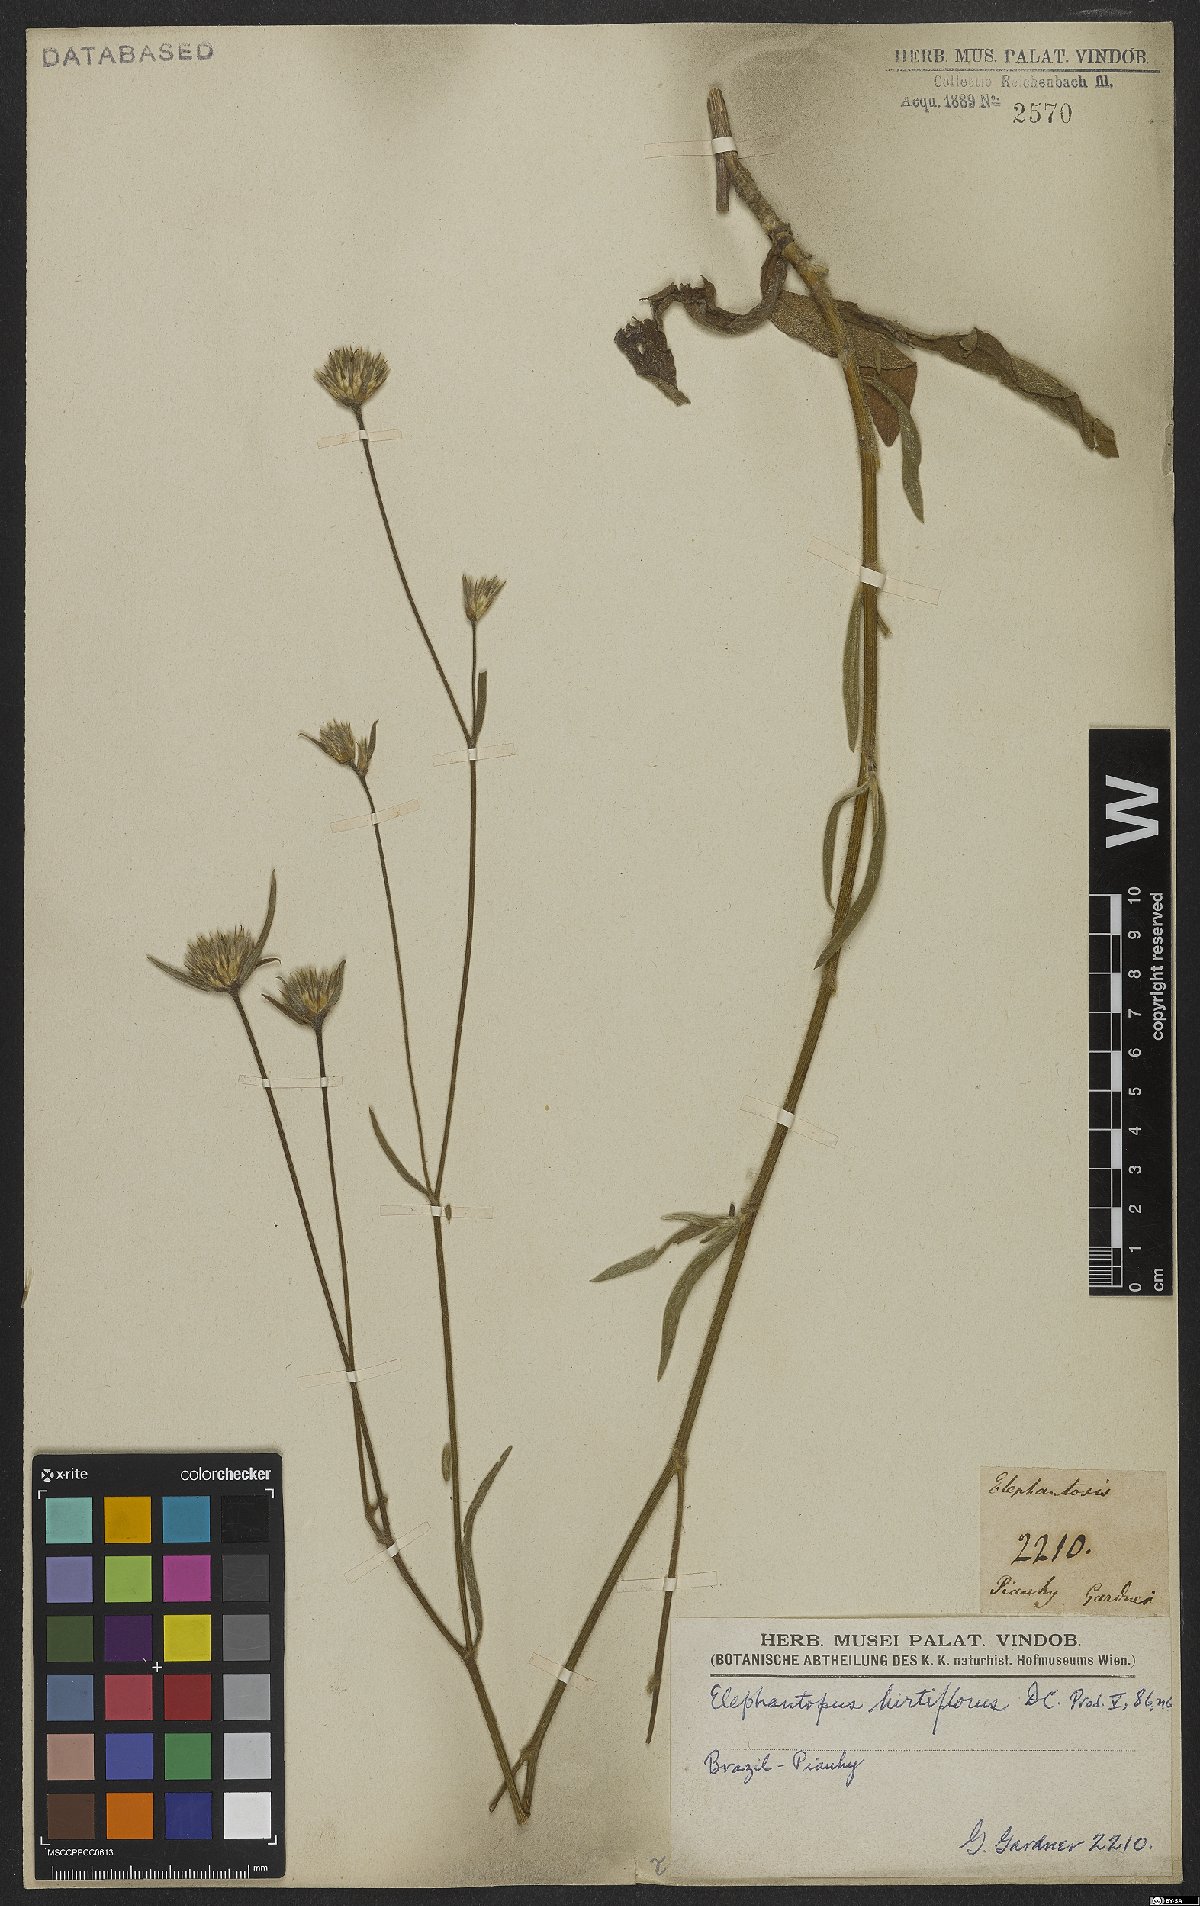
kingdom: Plantae
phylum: Tracheophyta
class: Magnoliopsida
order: Asterales
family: Asteraceae
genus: Elephantopus
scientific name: Elephantopus hirtiflorus
